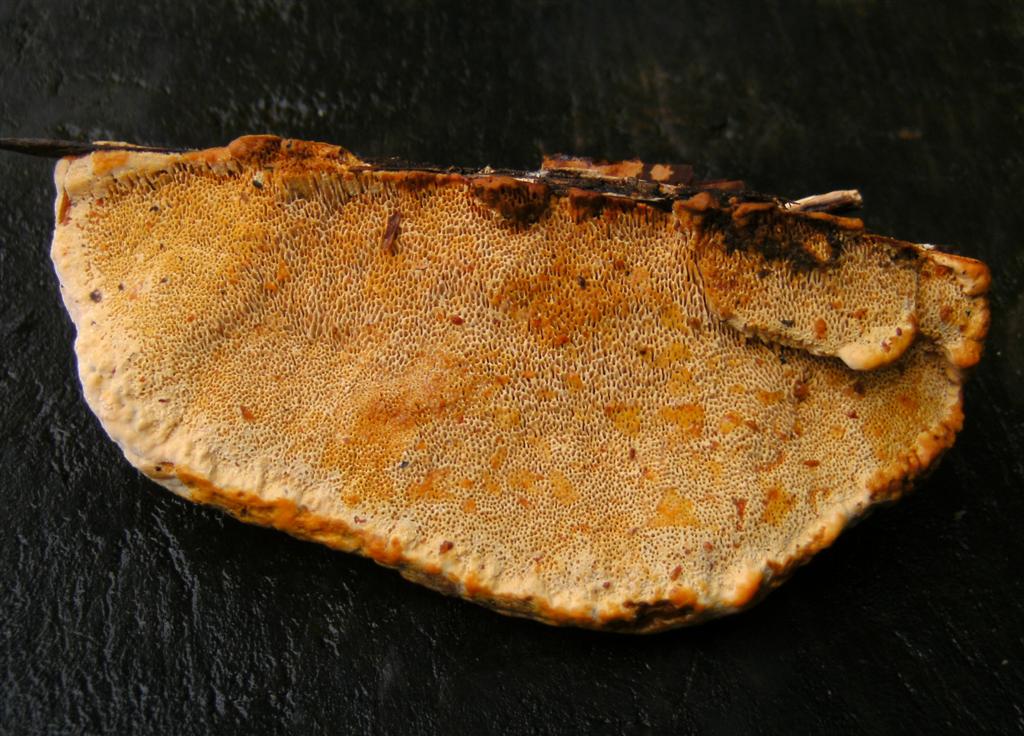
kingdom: Fungi
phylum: Basidiomycota
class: Agaricomycetes
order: Gloeophyllales
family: Gloeophyllaceae
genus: Gloeophyllum
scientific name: Gloeophyllum odoratum
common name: duftende korkhat
